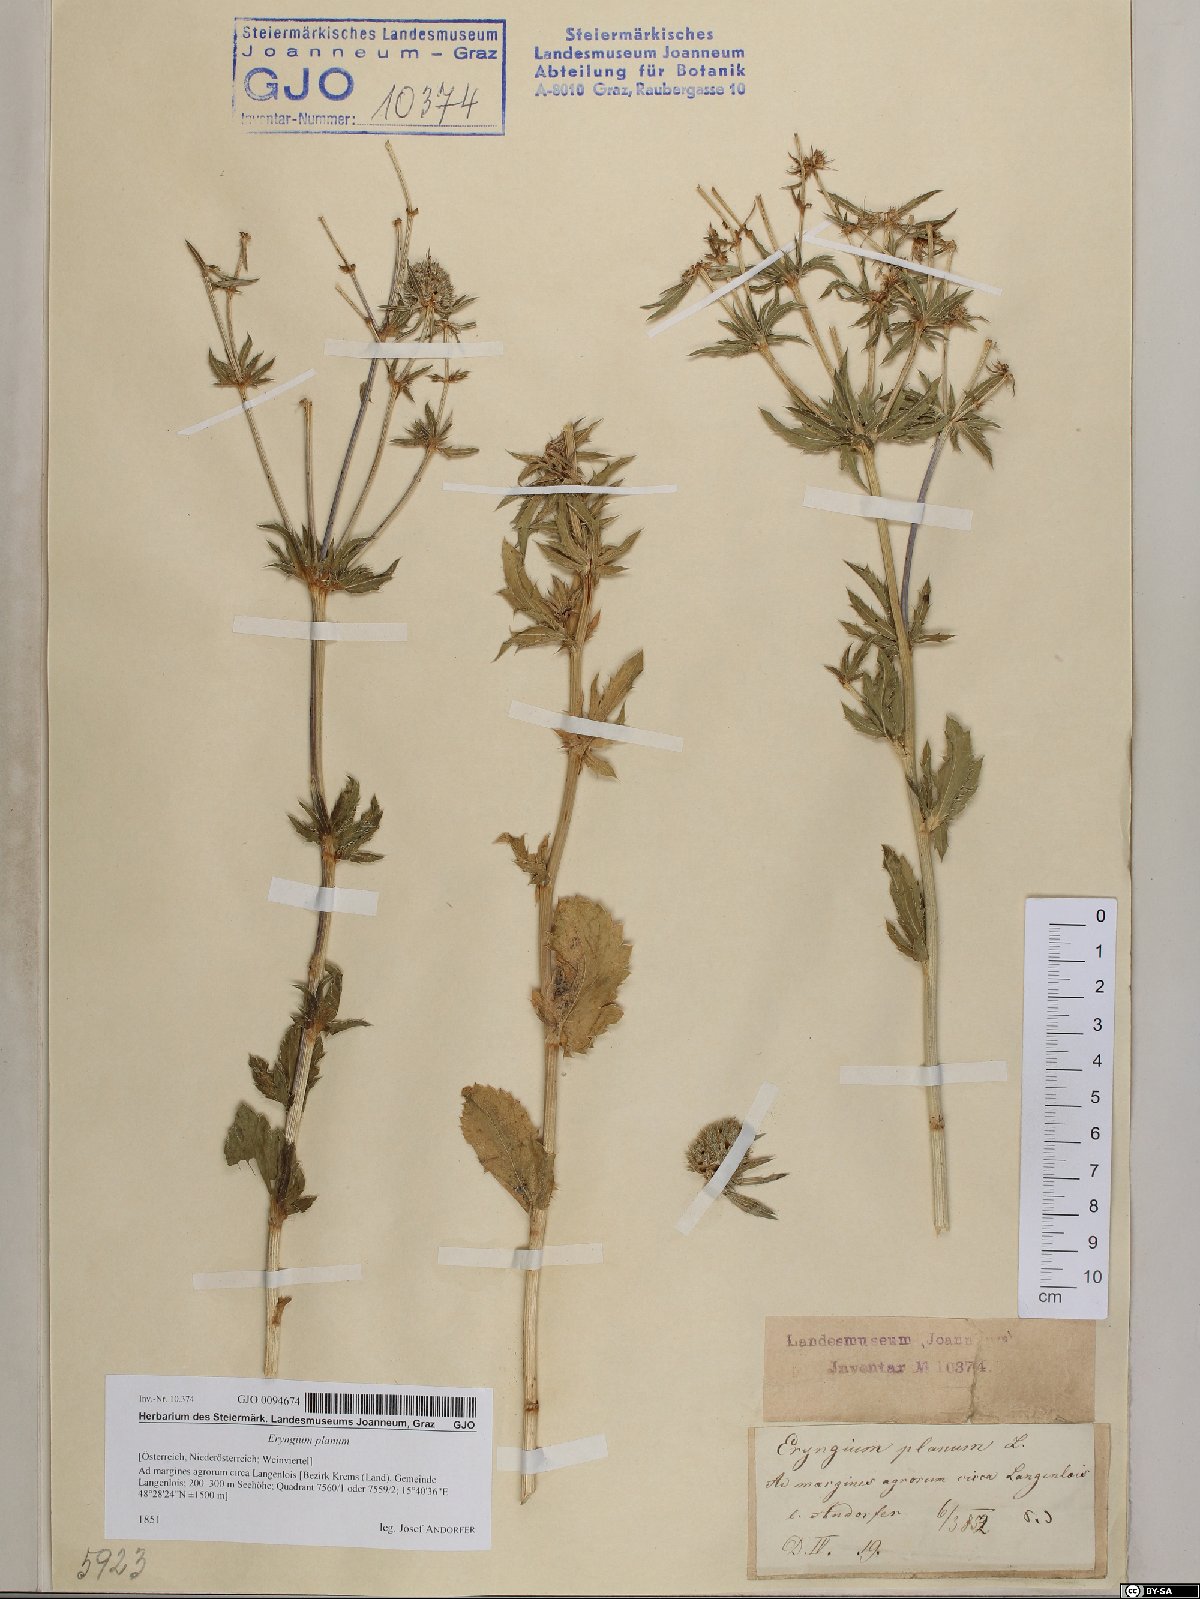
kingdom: Plantae
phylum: Tracheophyta
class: Magnoliopsida
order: Apiales
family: Apiaceae
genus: Eryngium
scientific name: Eryngium planum
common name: Blue eryngo
